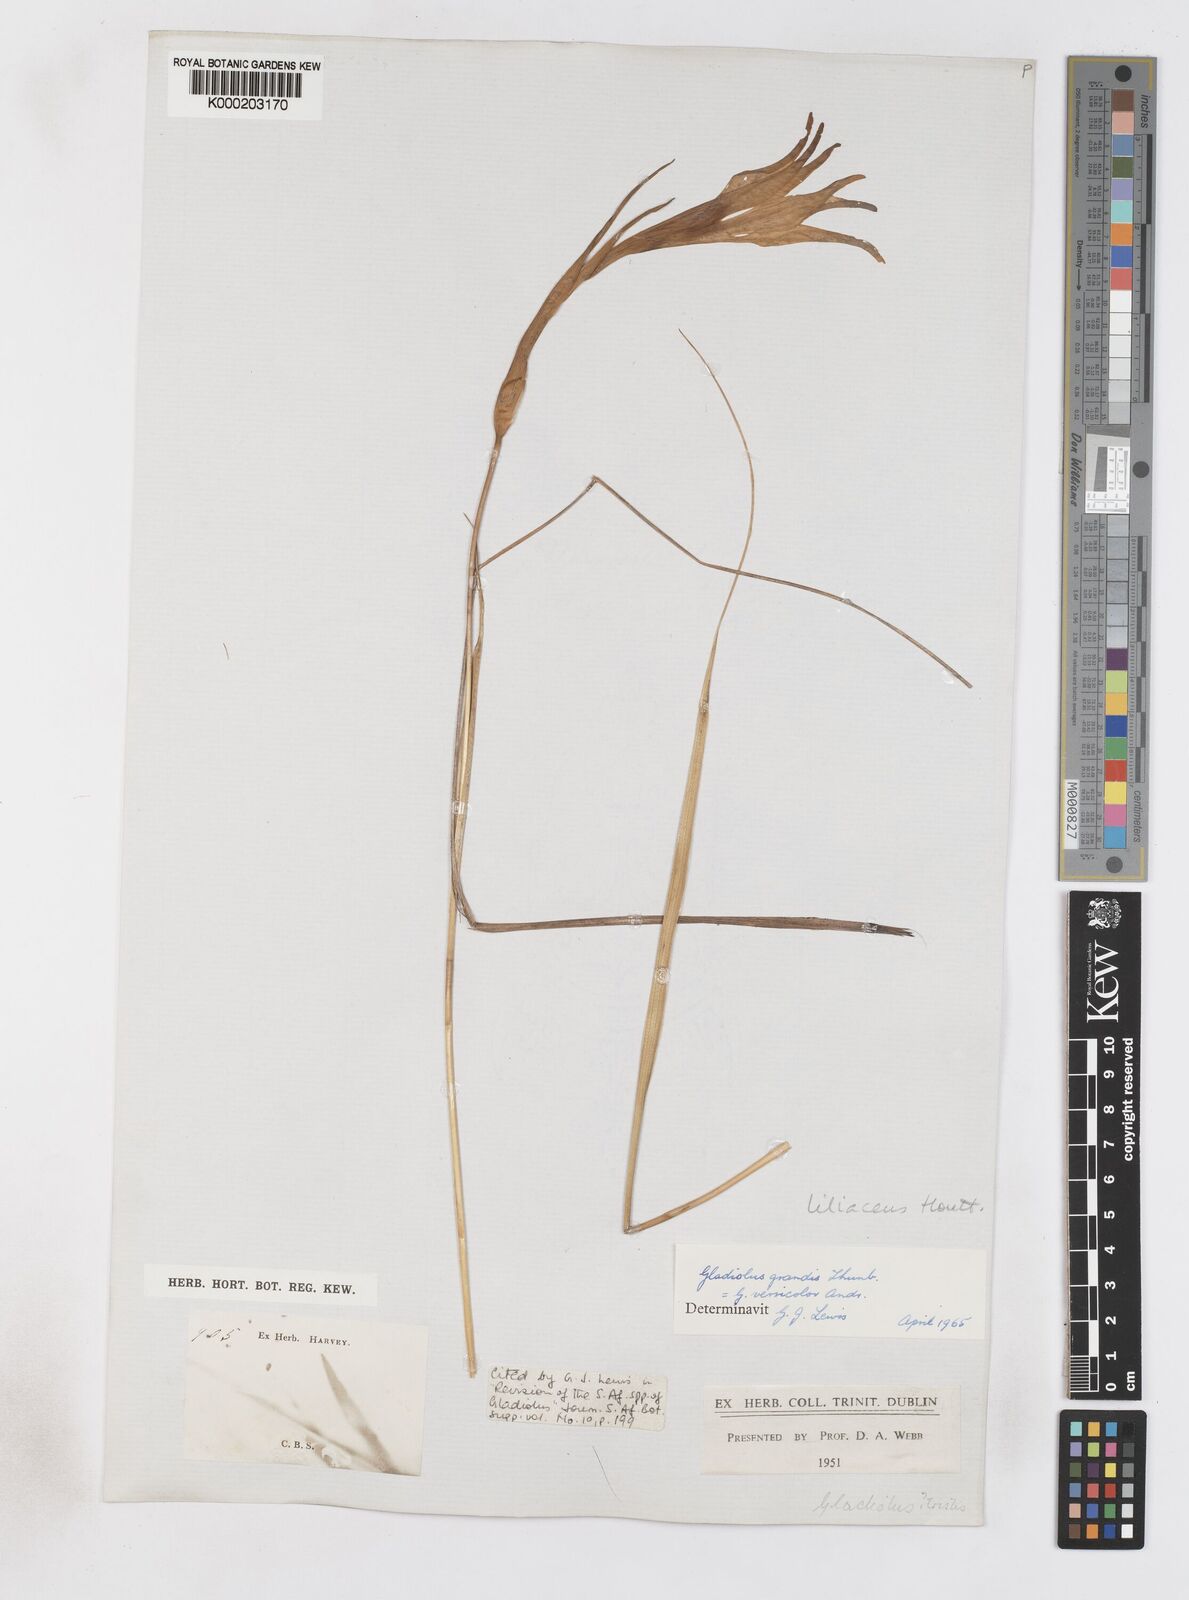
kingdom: Plantae
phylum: Tracheophyta
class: Liliopsida
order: Asparagales
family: Iridaceae
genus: Gladiolus
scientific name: Gladiolus liliaceus
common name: Large brown afrikaner
